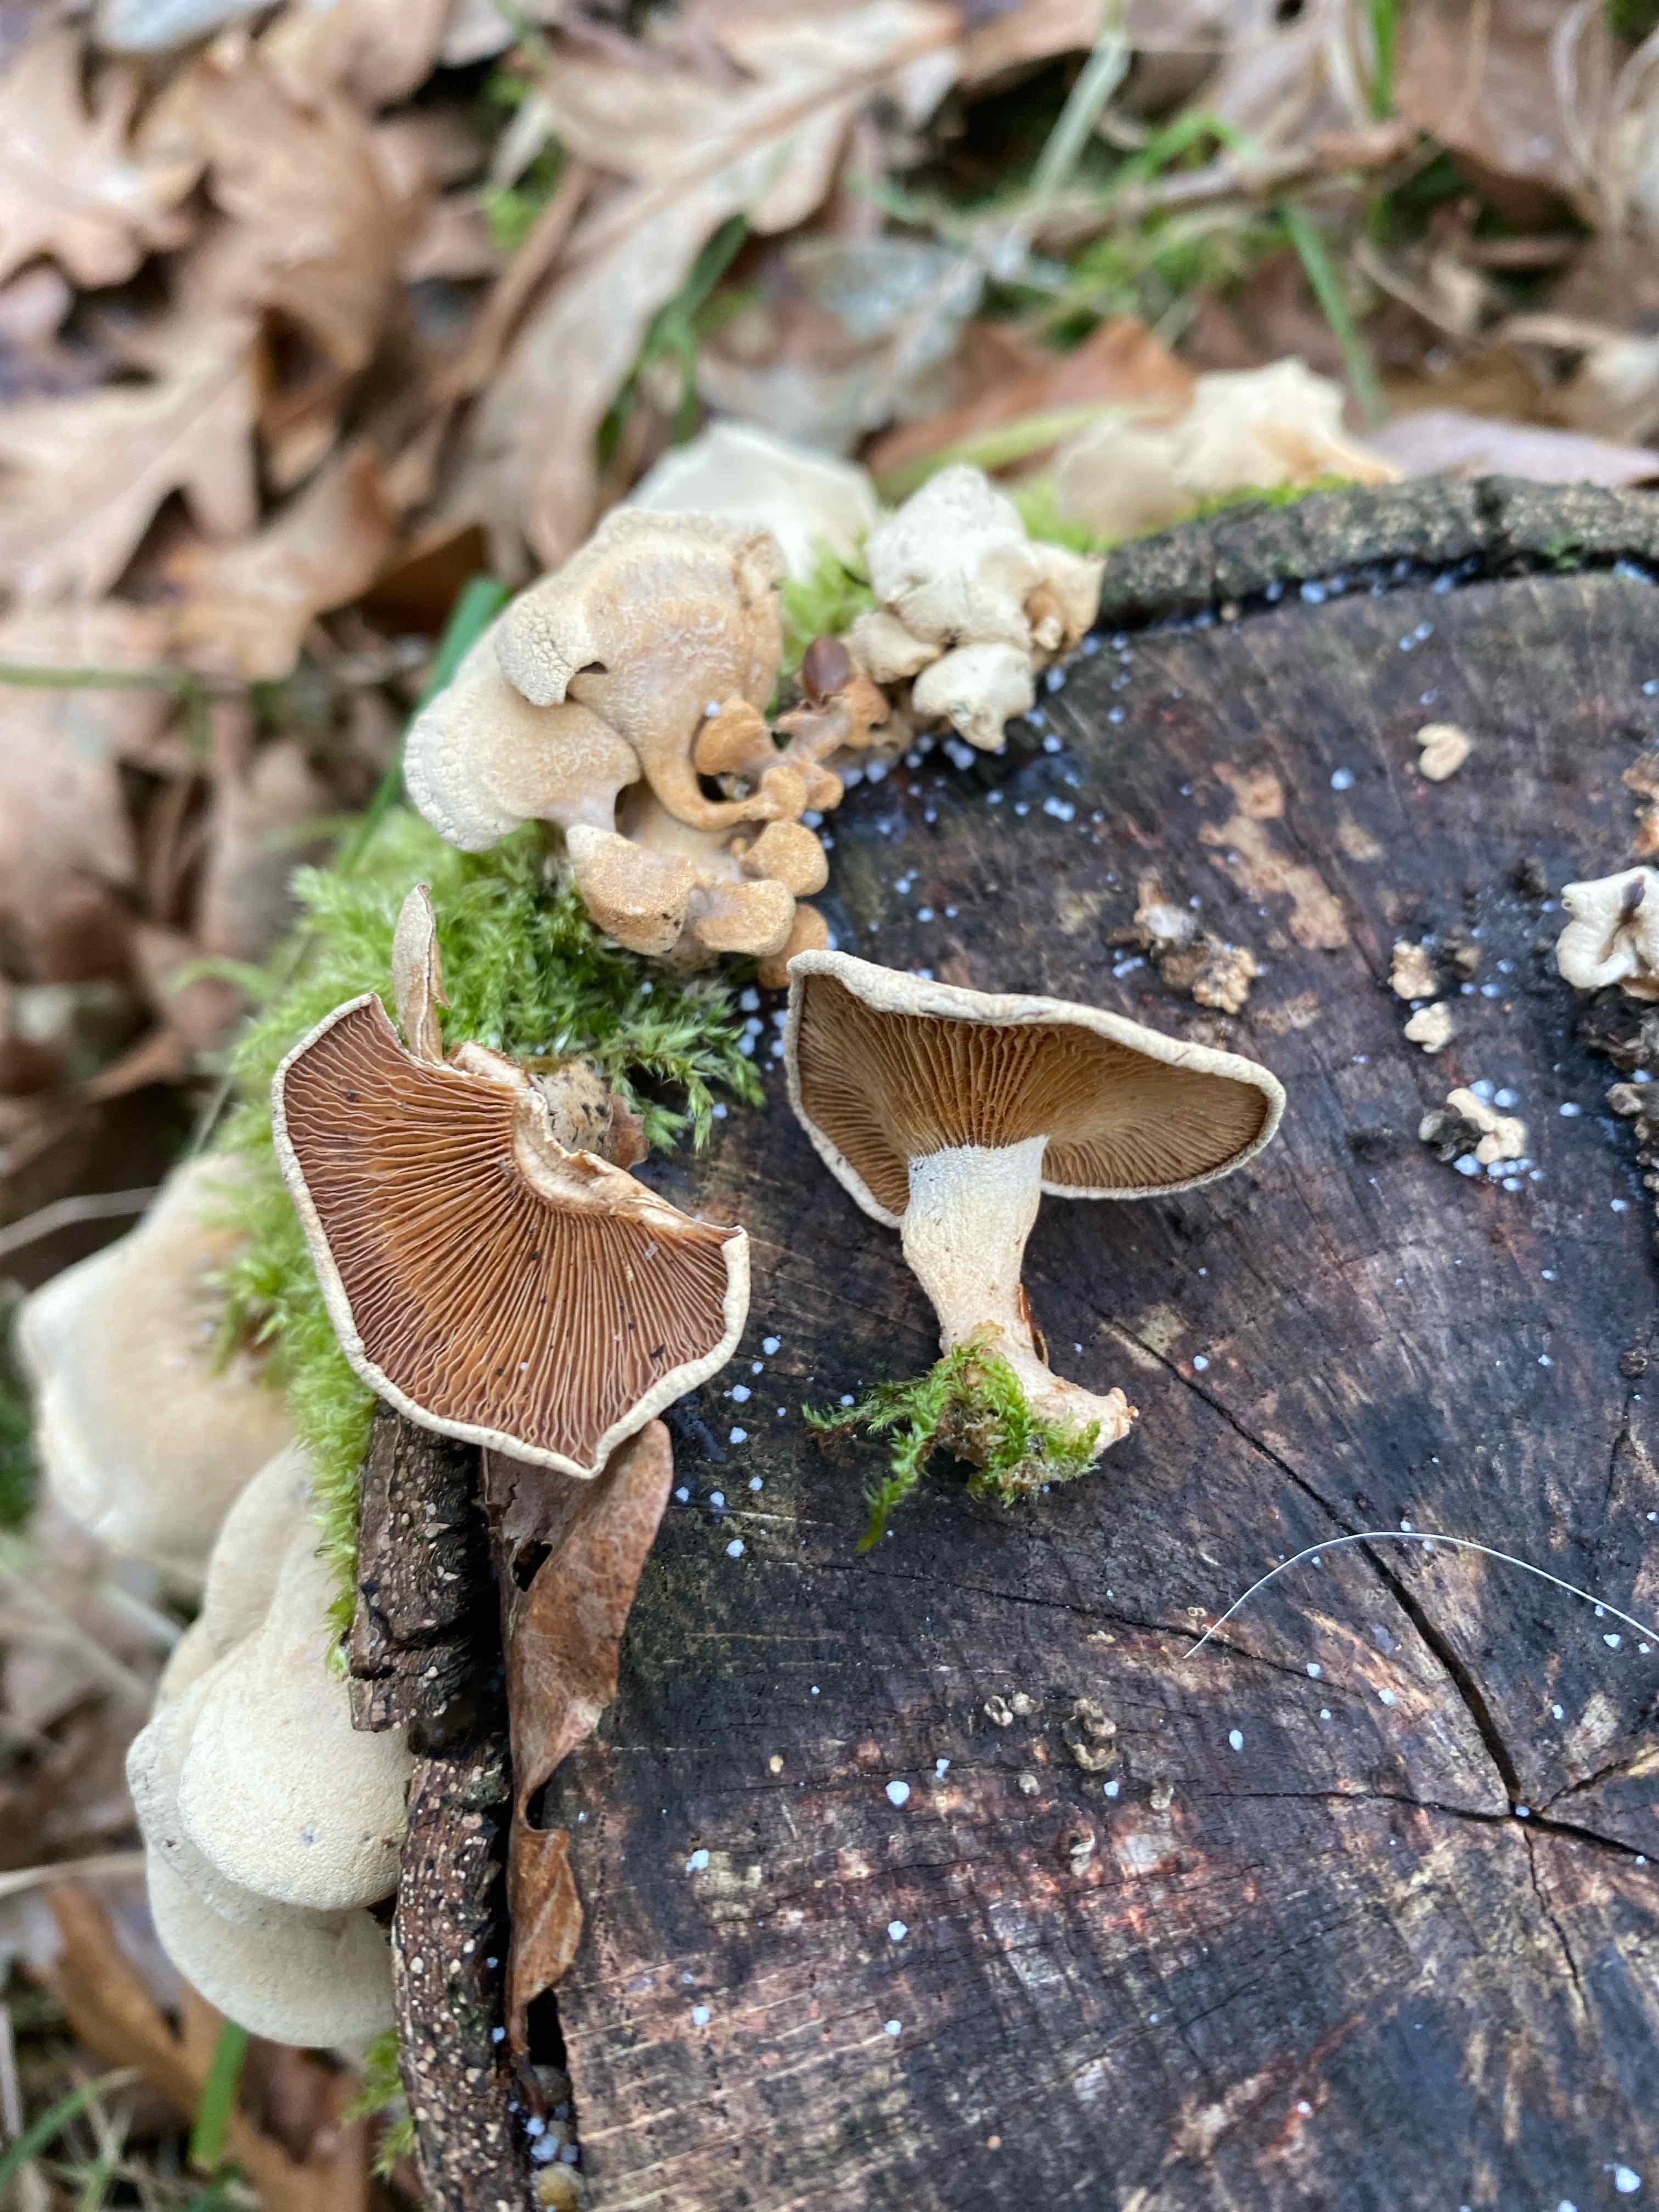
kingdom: Fungi
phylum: Basidiomycota
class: Agaricomycetes
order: Agaricales
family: Mycenaceae
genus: Panellus
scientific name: Panellus stipticus
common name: kliddet epaulethat
